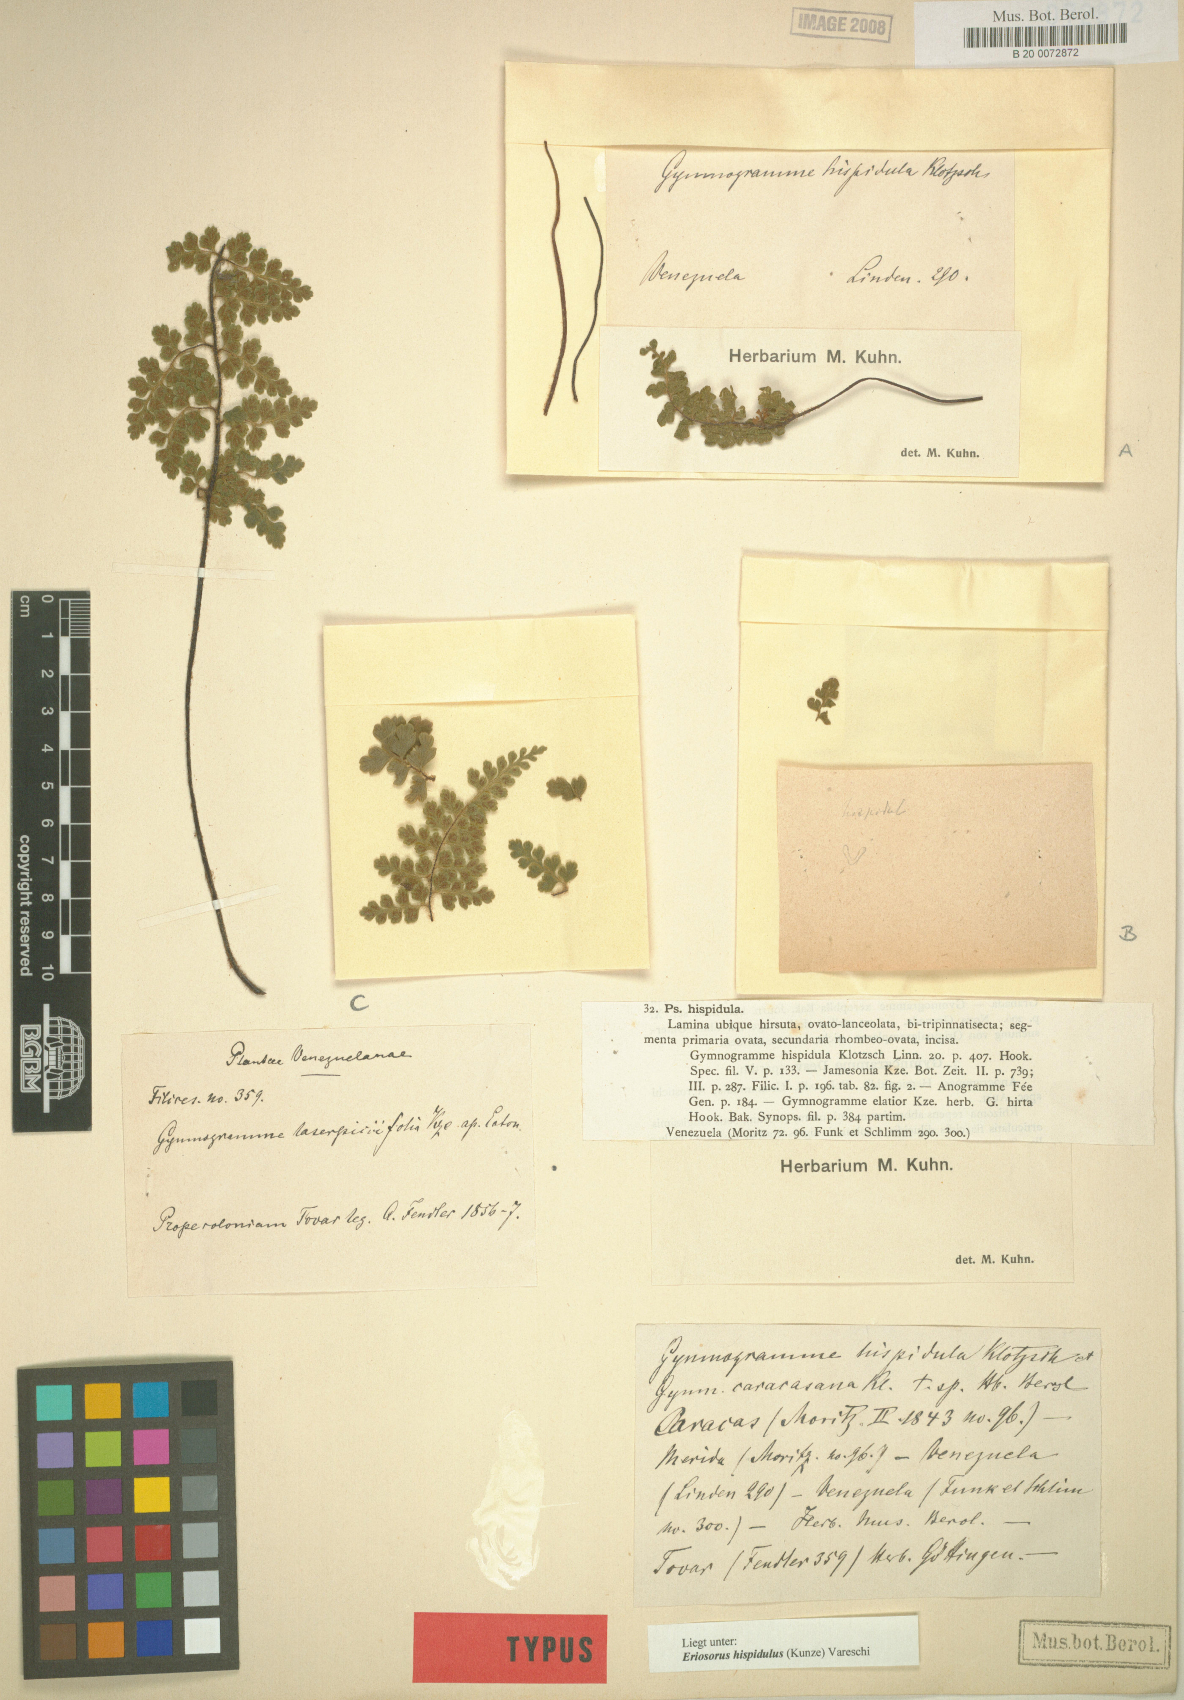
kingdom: Plantae
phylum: Tracheophyta
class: Polypodiopsida
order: Polypodiales
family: Pteridaceae
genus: Jamesonia
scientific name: Jamesonia hispidula
